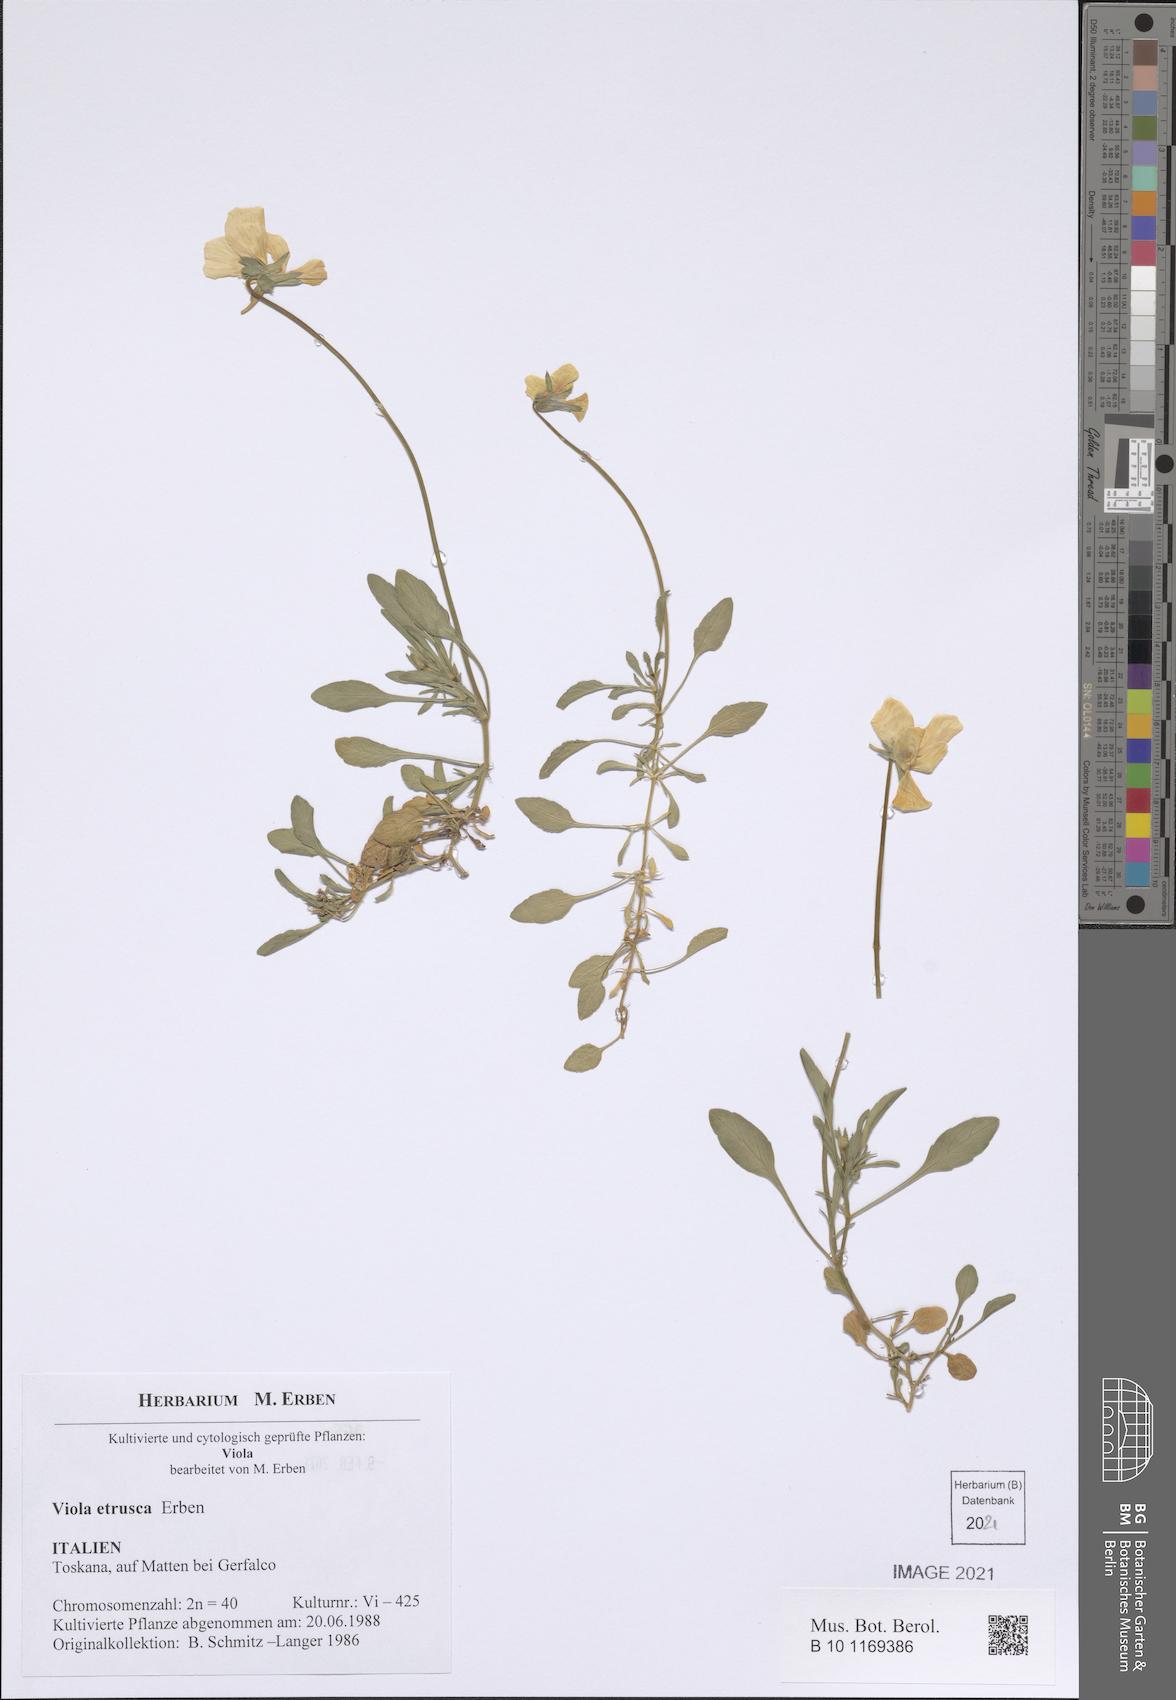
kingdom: Plantae
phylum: Tracheophyta
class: Magnoliopsida
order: Malpighiales
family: Violaceae
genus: Viola
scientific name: Viola etrusca
